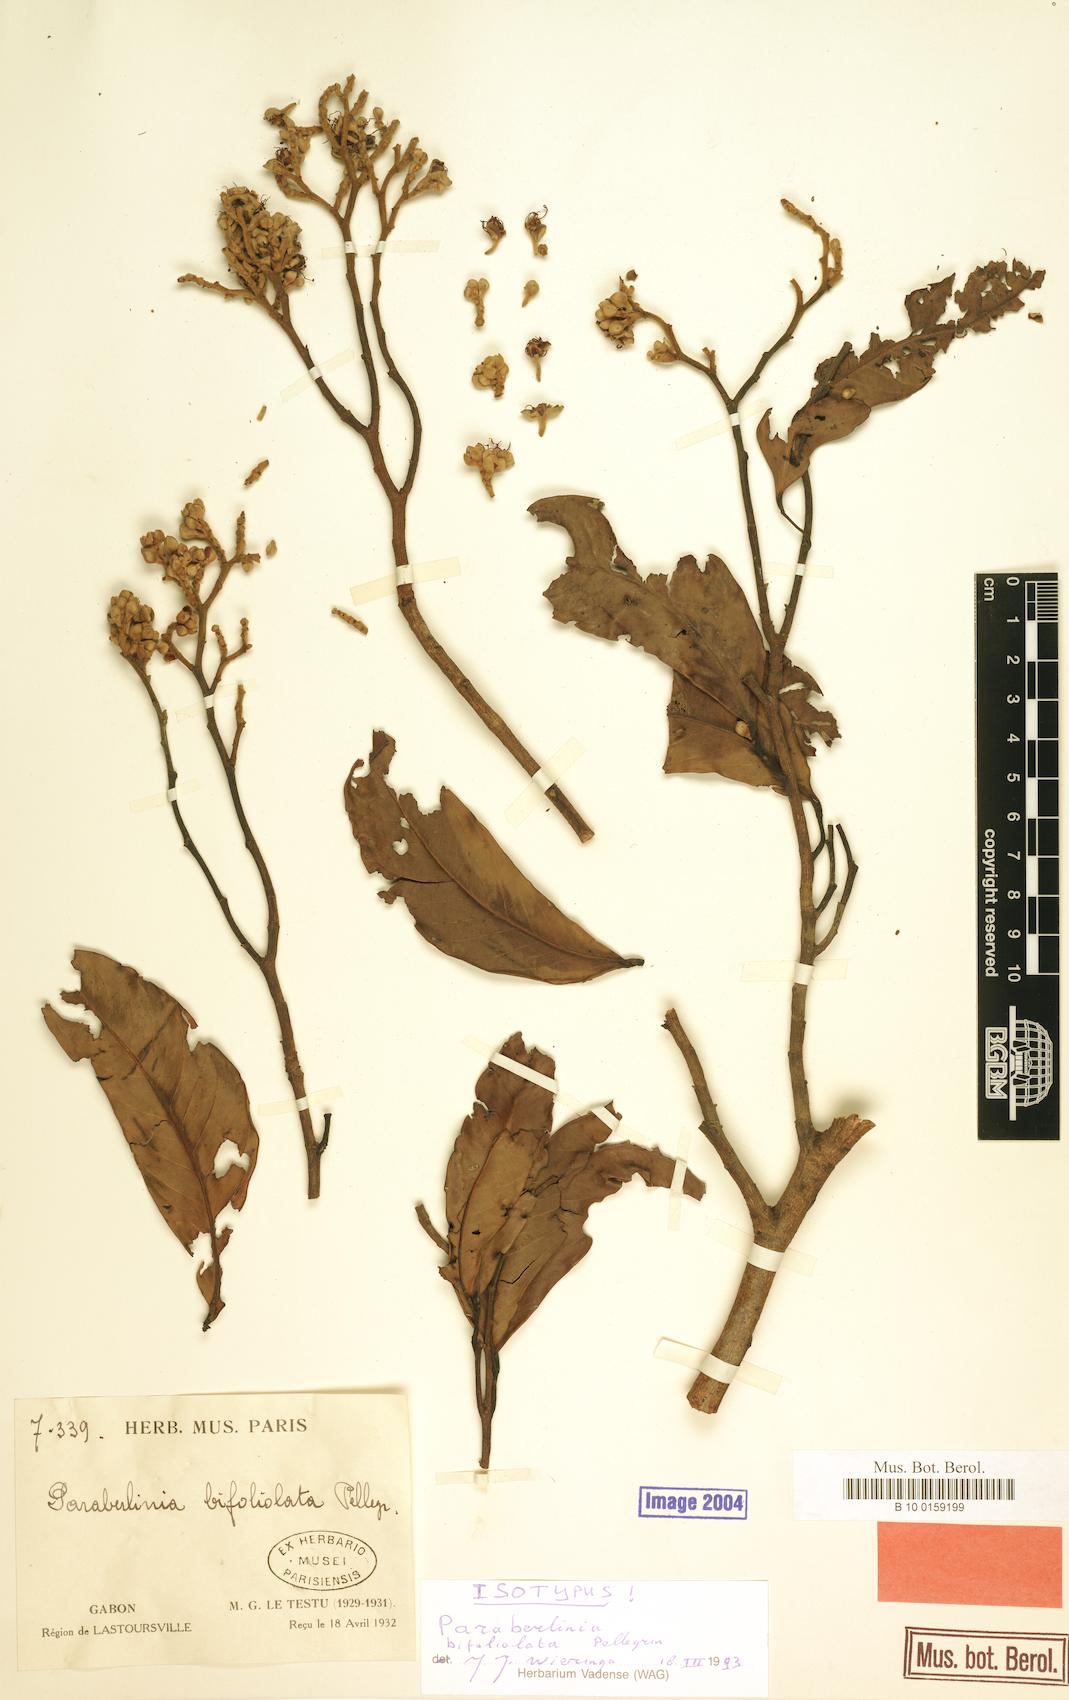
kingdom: Plantae
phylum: Tracheophyta
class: Magnoliopsida
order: Fabales
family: Fabaceae
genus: Julbernardia
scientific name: Julbernardia pellegriniana
